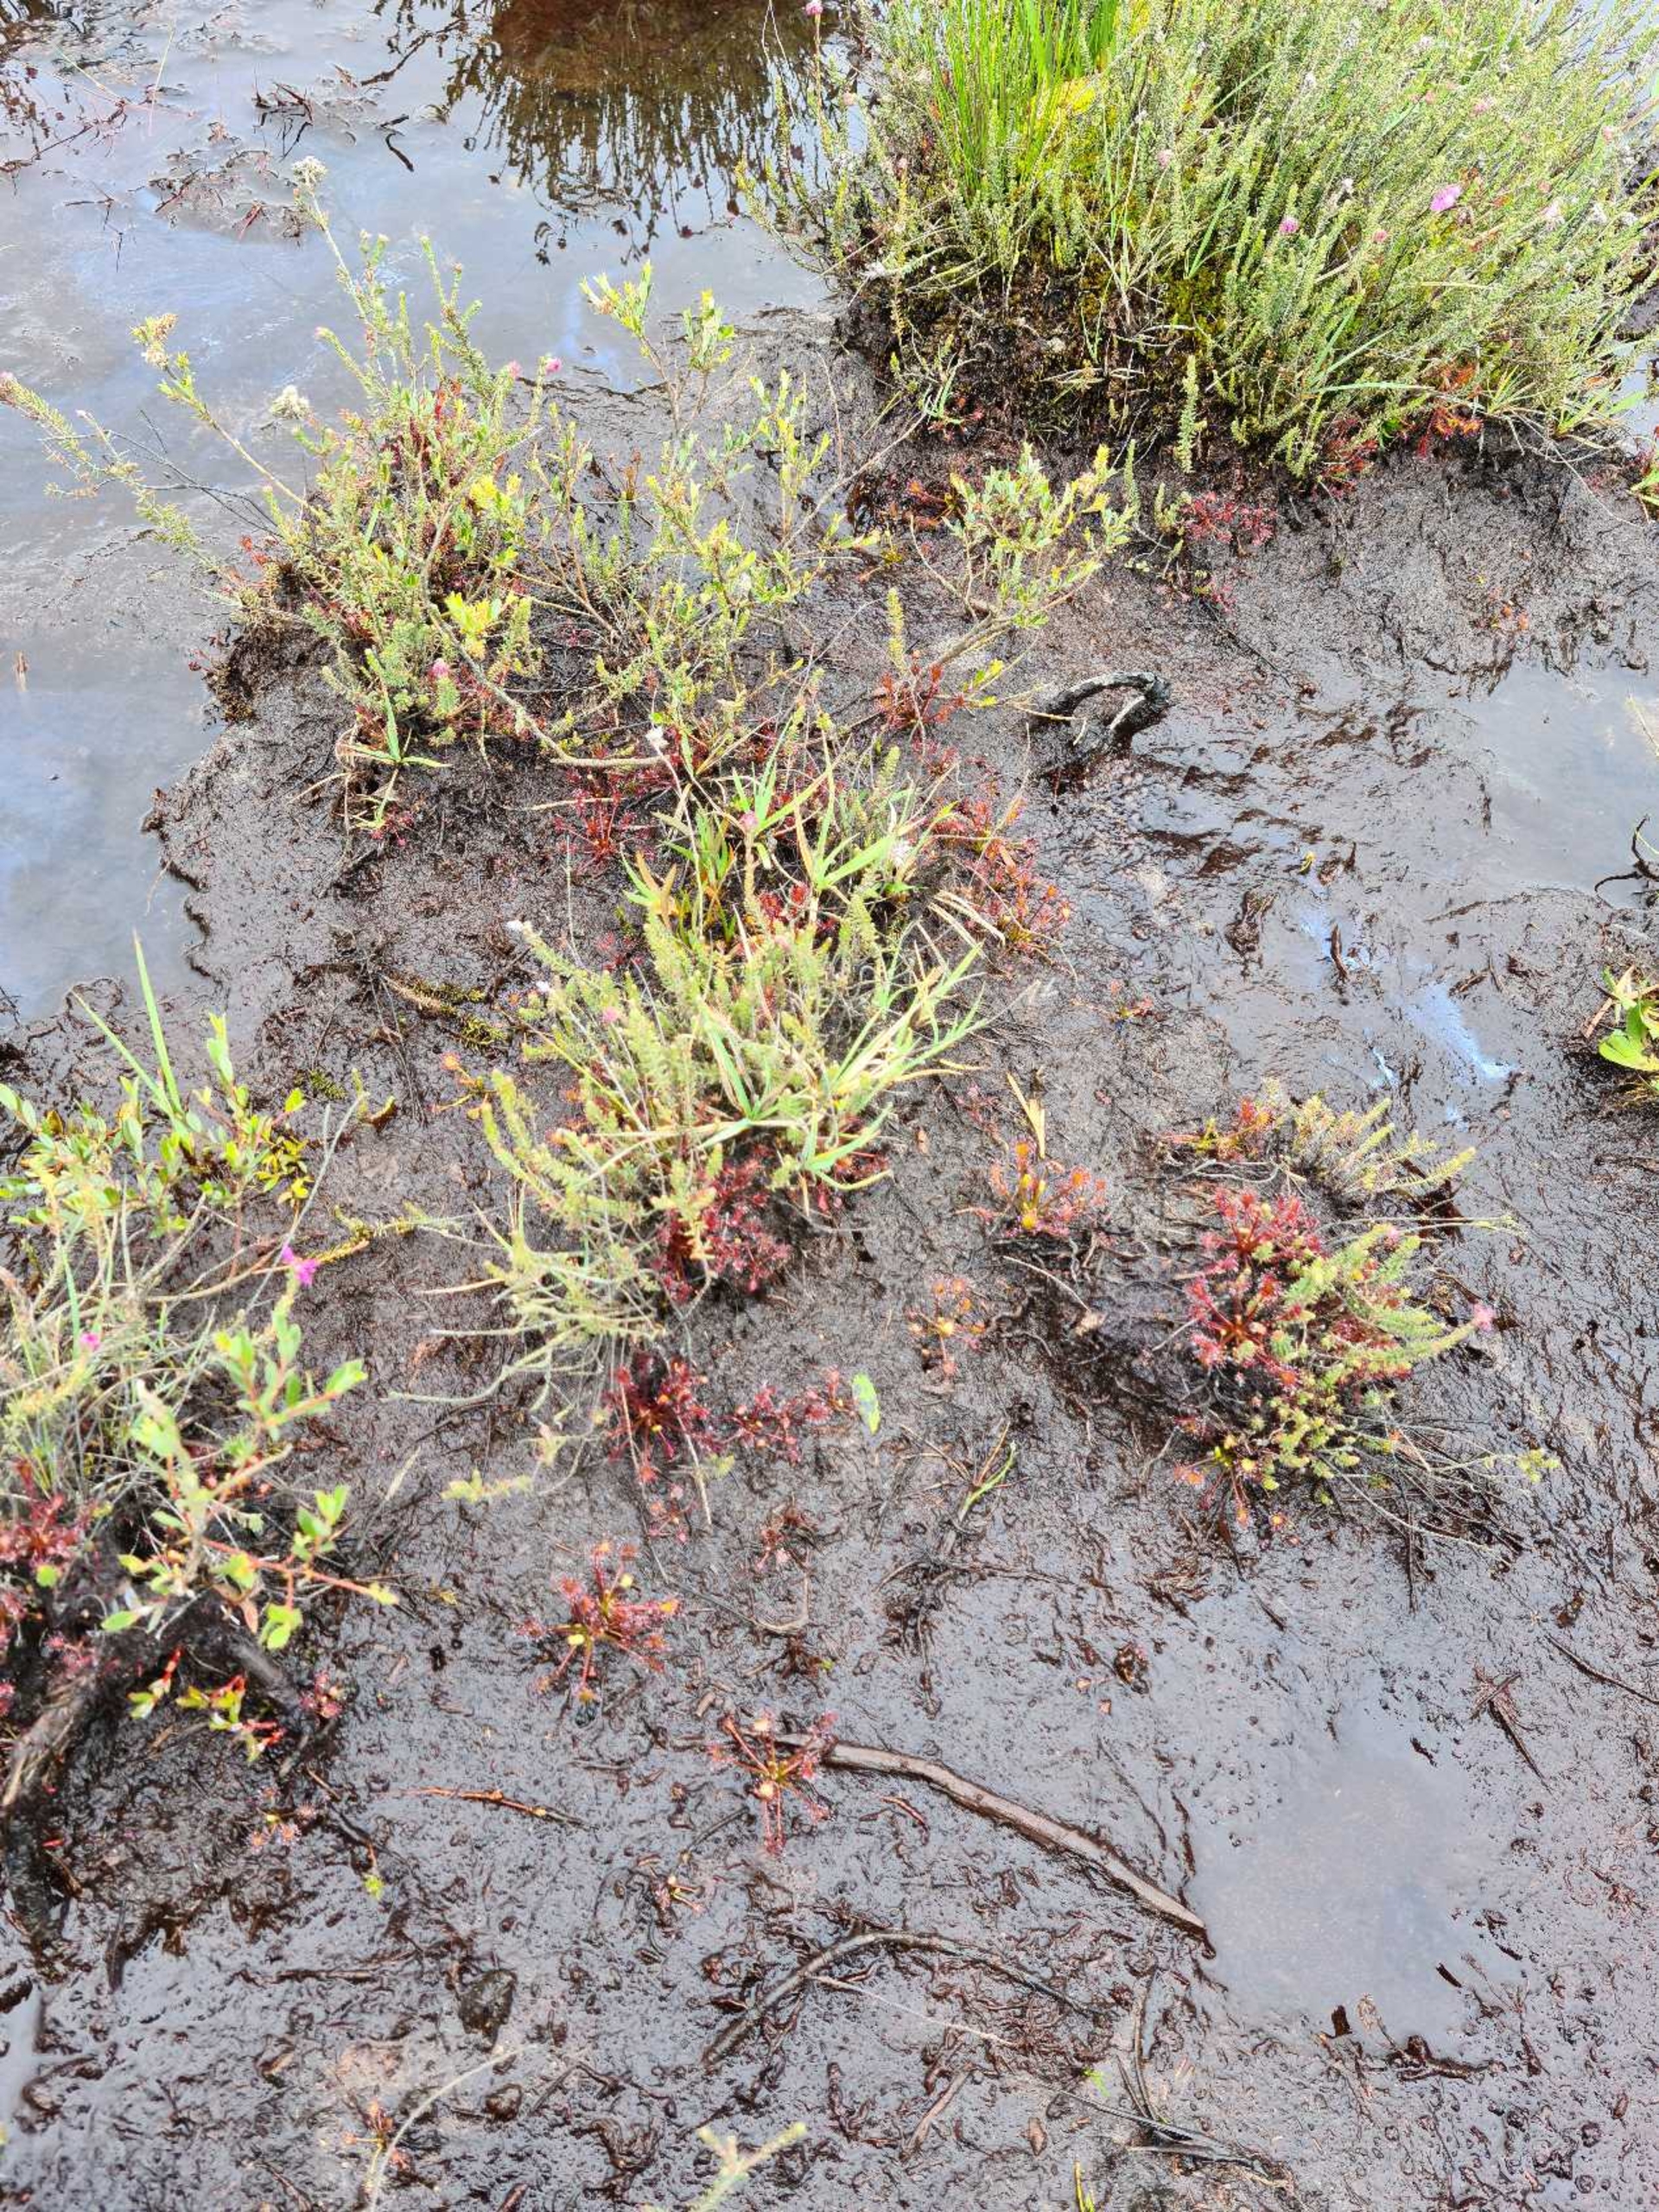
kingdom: Plantae
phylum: Tracheophyta
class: Magnoliopsida
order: Caryophyllales
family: Droseraceae
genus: Drosera
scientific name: Drosera intermedia
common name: Liden soldug
